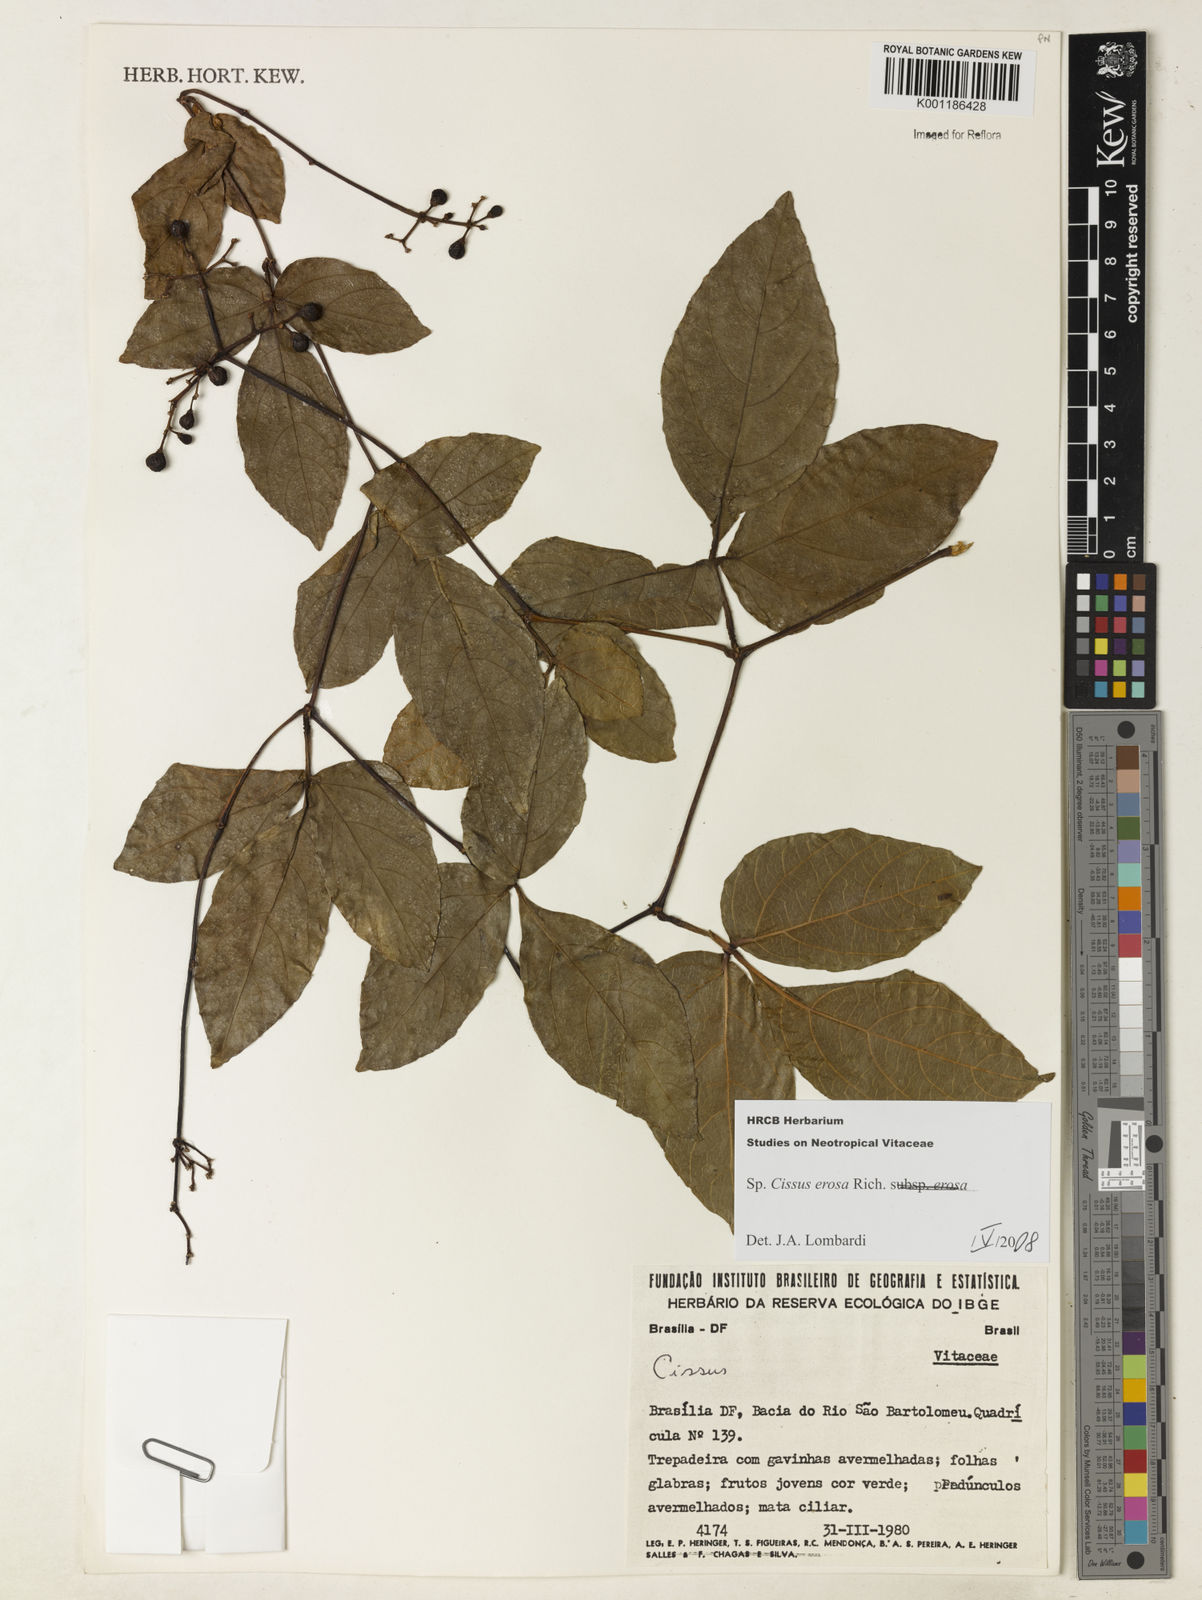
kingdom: Plantae
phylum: Tracheophyta
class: Magnoliopsida
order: Vitales
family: Vitaceae
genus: Cissus
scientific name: Cissus erosa
